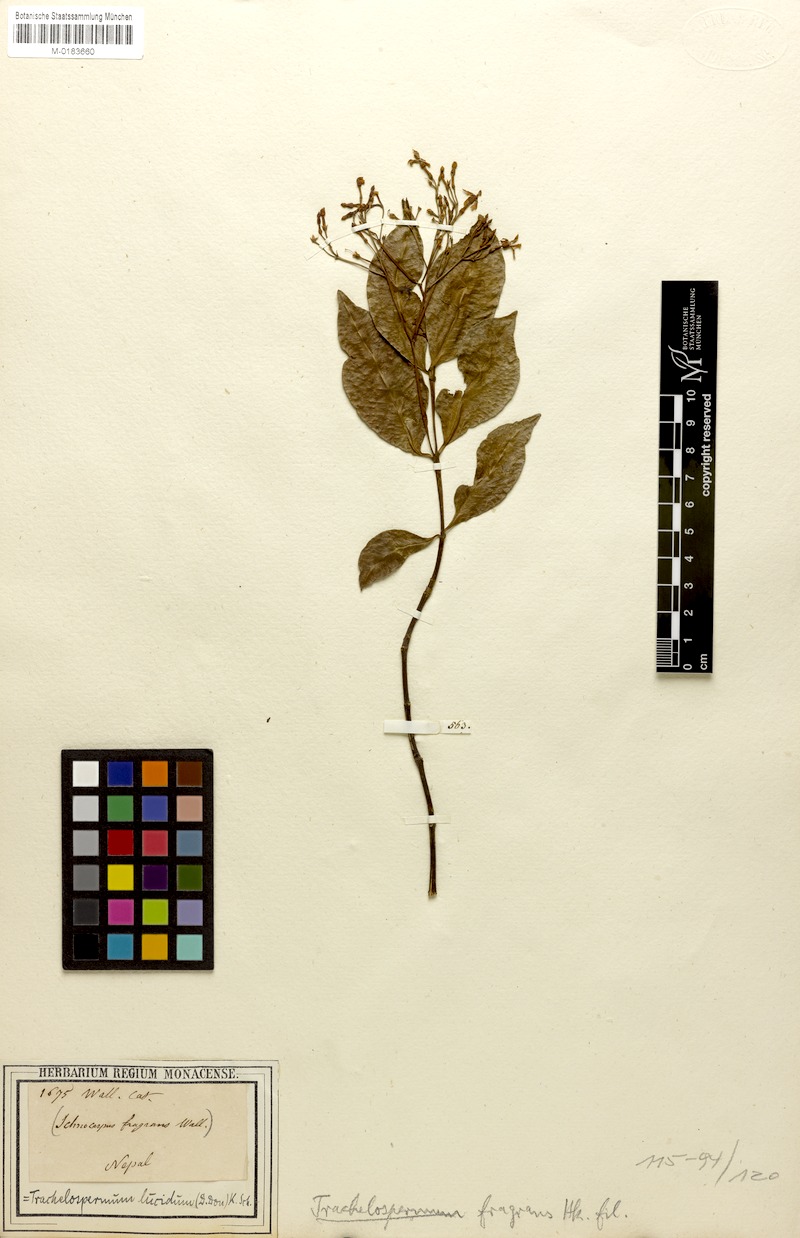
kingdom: Plantae
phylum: Tracheophyta
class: Magnoliopsida
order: Gentianales
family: Apocynaceae
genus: Trachelospermum
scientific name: Trachelospermum lucidum
